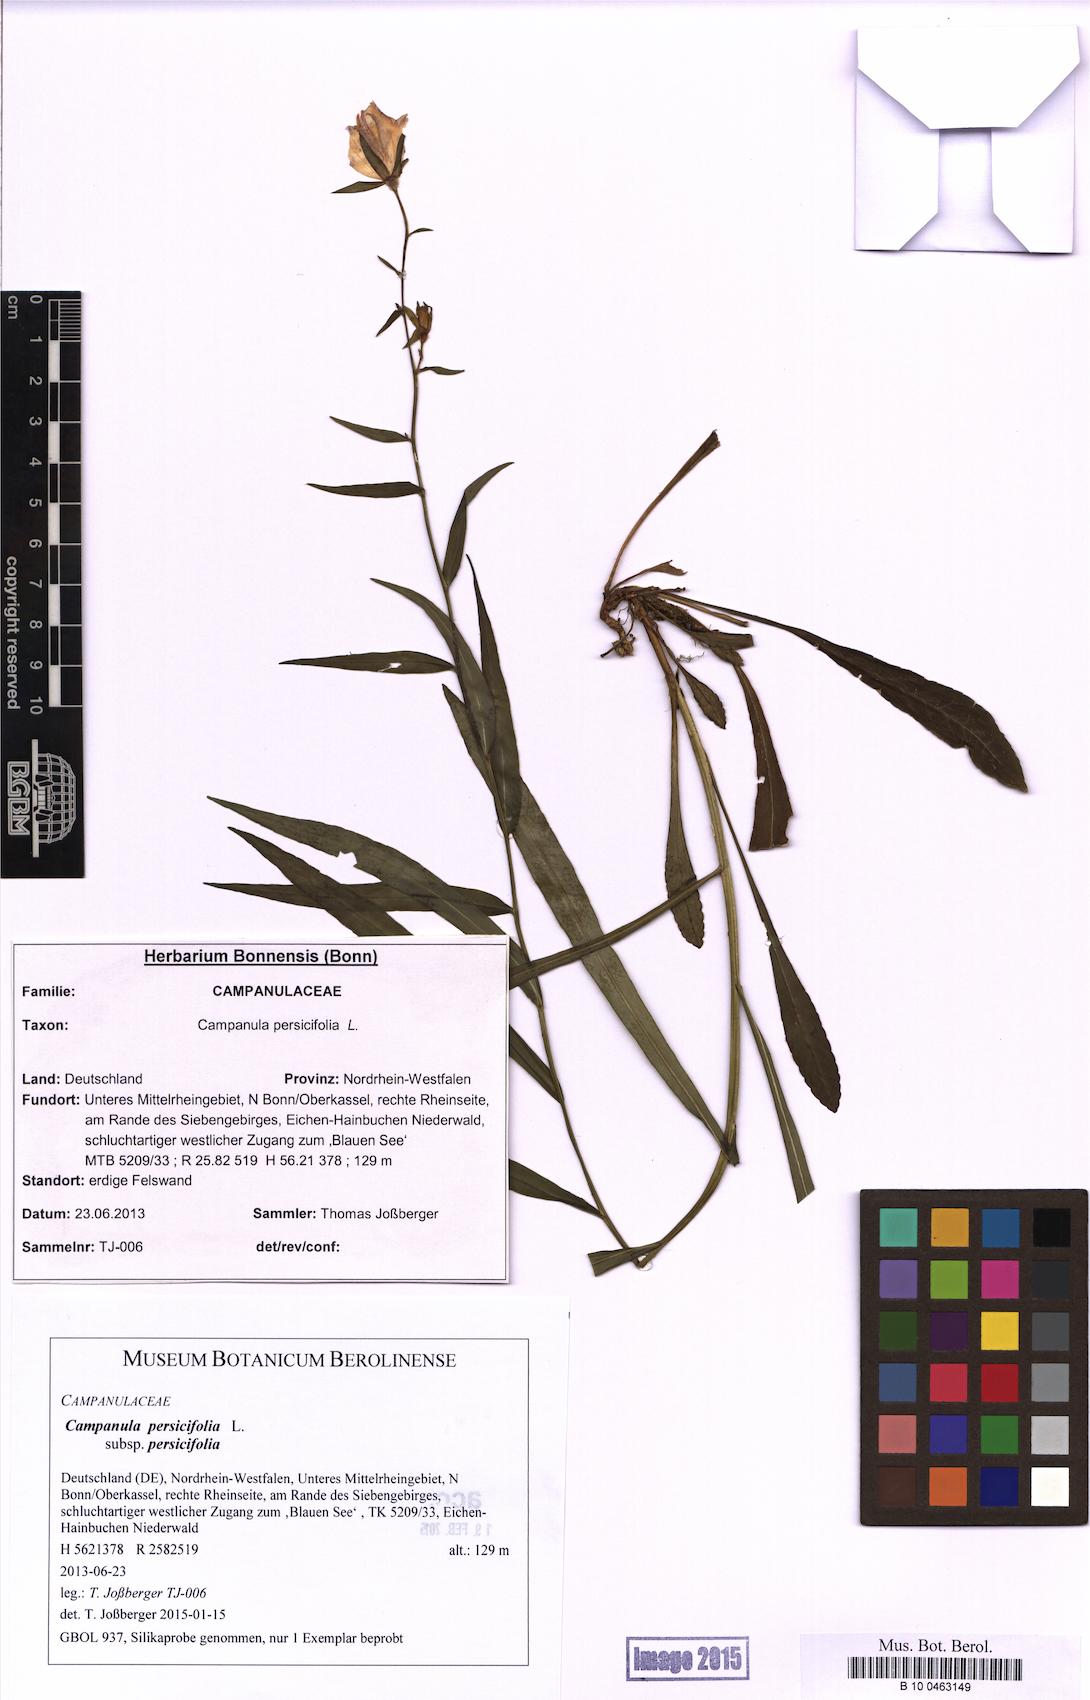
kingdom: Plantae
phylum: Tracheophyta
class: Magnoliopsida
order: Asterales
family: Campanulaceae
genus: Campanula
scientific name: Campanula persicifolia
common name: Peach-leaved bellflower
